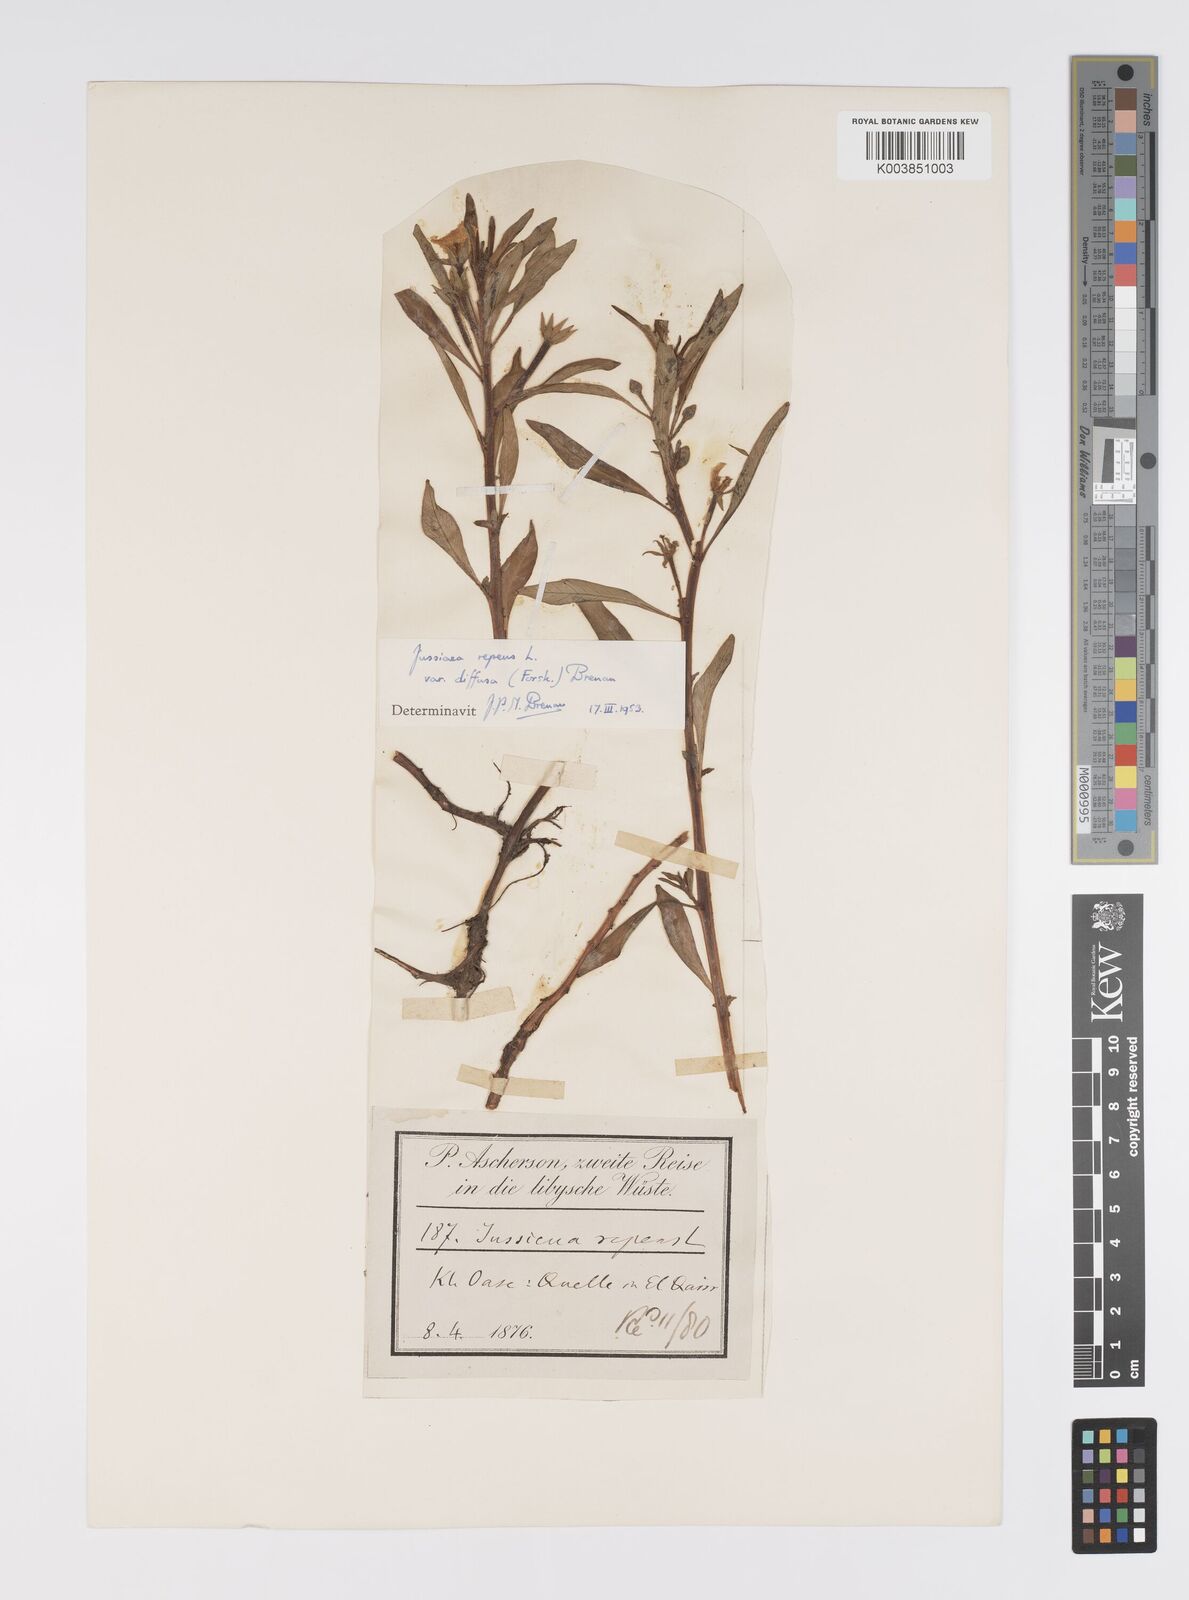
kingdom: Plantae
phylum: Tracheophyta
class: Magnoliopsida
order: Myrtales
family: Onagraceae
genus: Ludwigia
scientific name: Ludwigia adscendens
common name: Creeping water primrose
